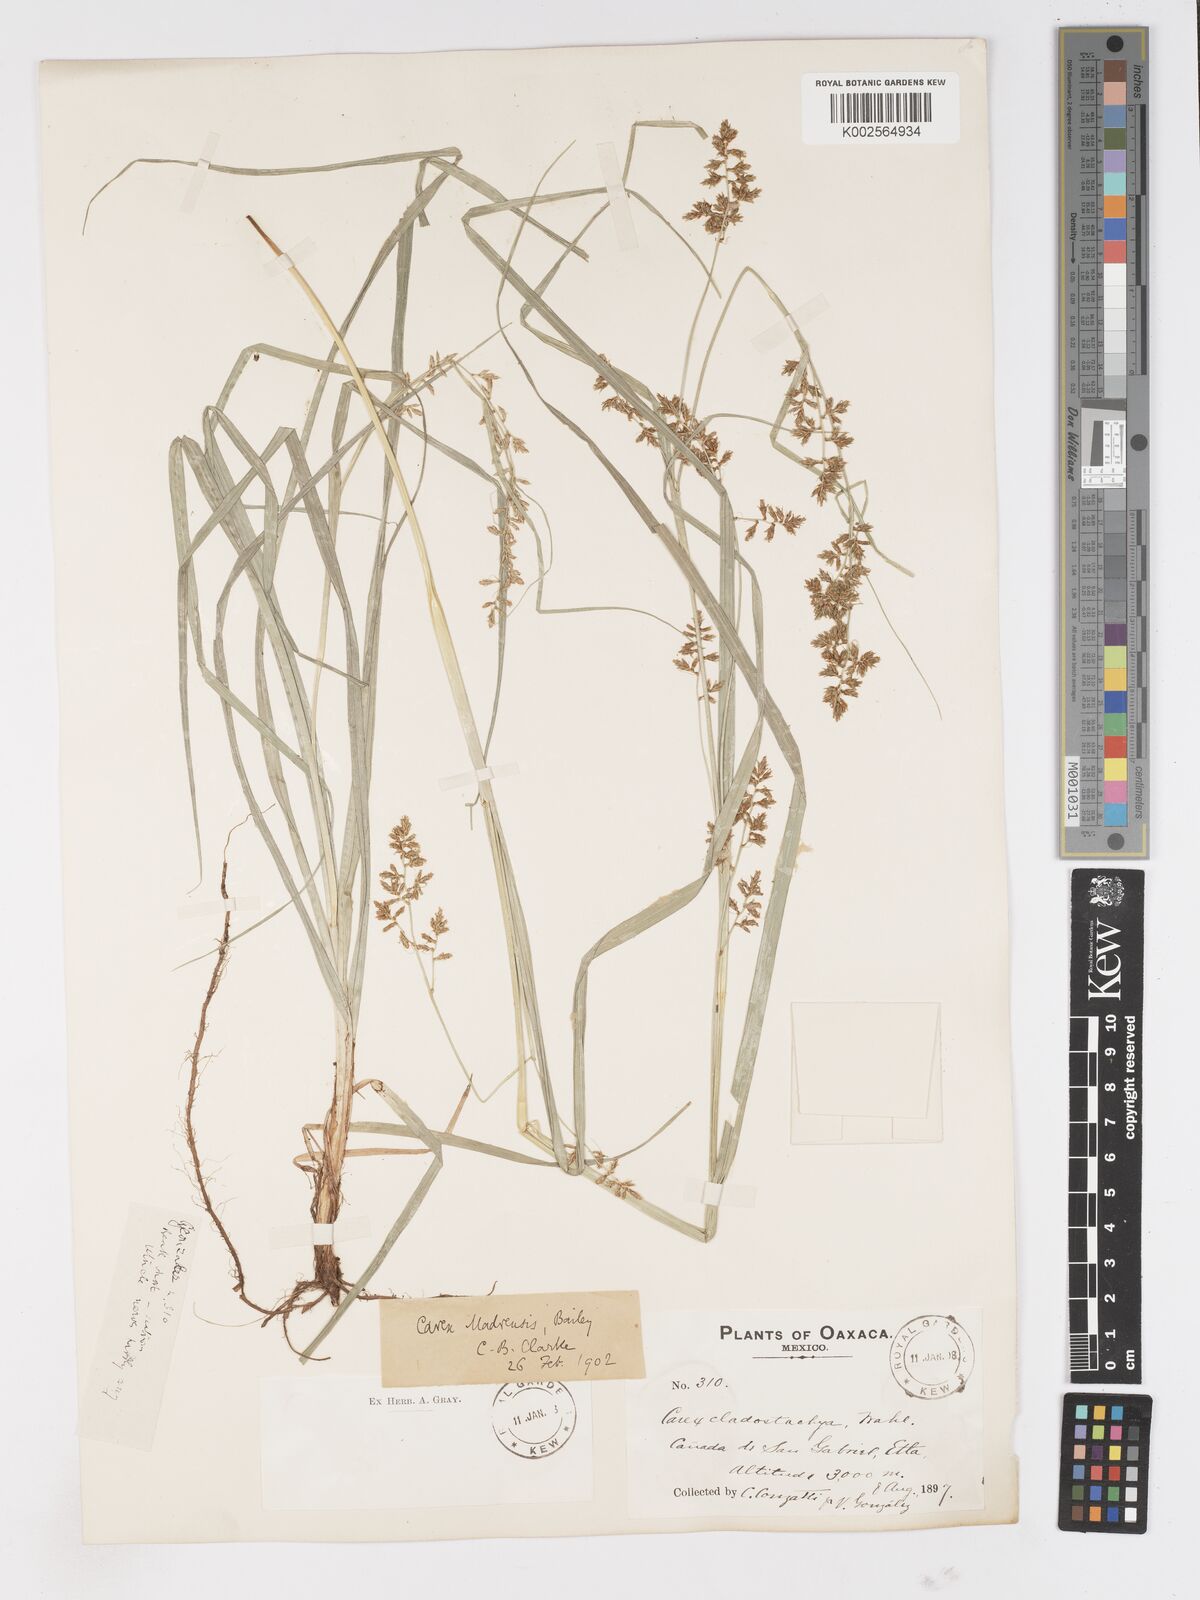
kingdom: Plantae
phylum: Tracheophyta
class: Liliopsida
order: Poales
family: Cyperaceae
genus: Carex
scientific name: Carex madrensis
